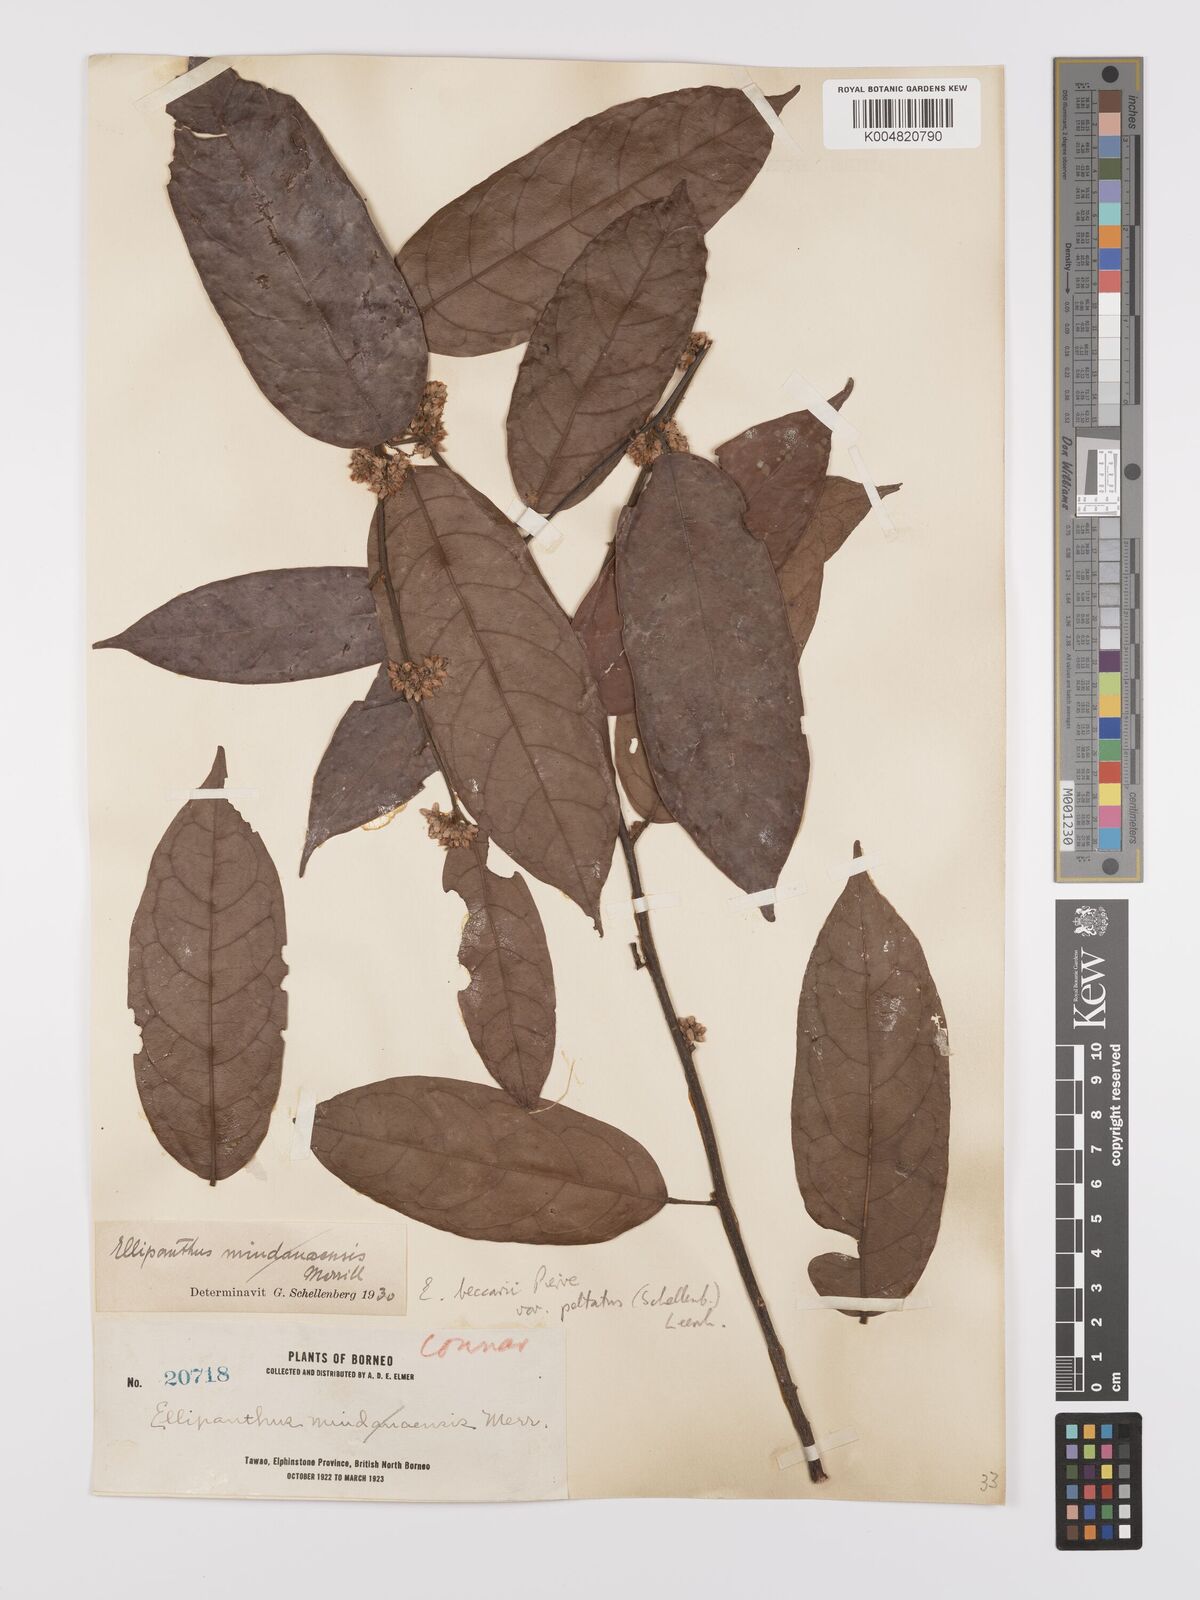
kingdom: Plantae
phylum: Tracheophyta
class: Magnoliopsida
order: Oxalidales
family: Connaraceae
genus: Ellipanthus
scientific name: Ellipanthus beccarii
